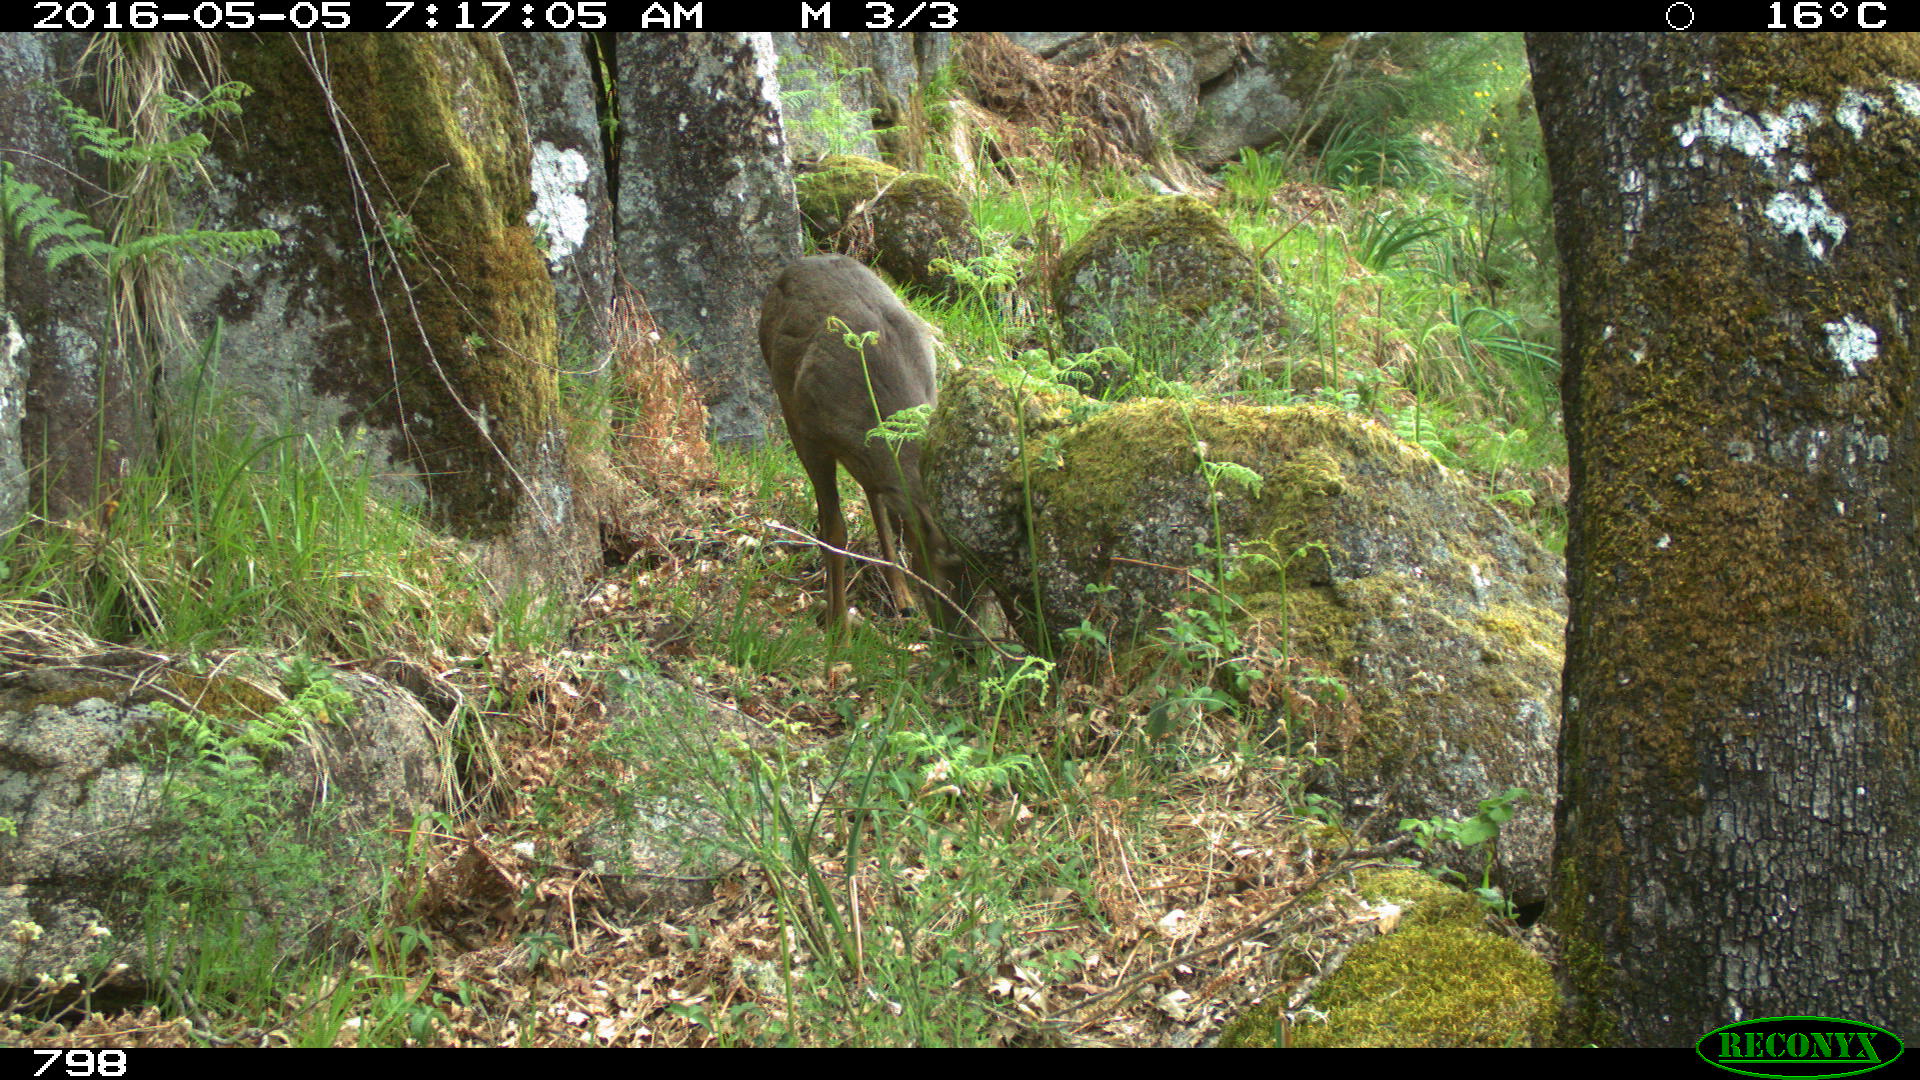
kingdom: Animalia
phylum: Chordata
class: Mammalia
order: Artiodactyla
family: Cervidae
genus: Capreolus
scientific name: Capreolus capreolus
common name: Western roe deer
